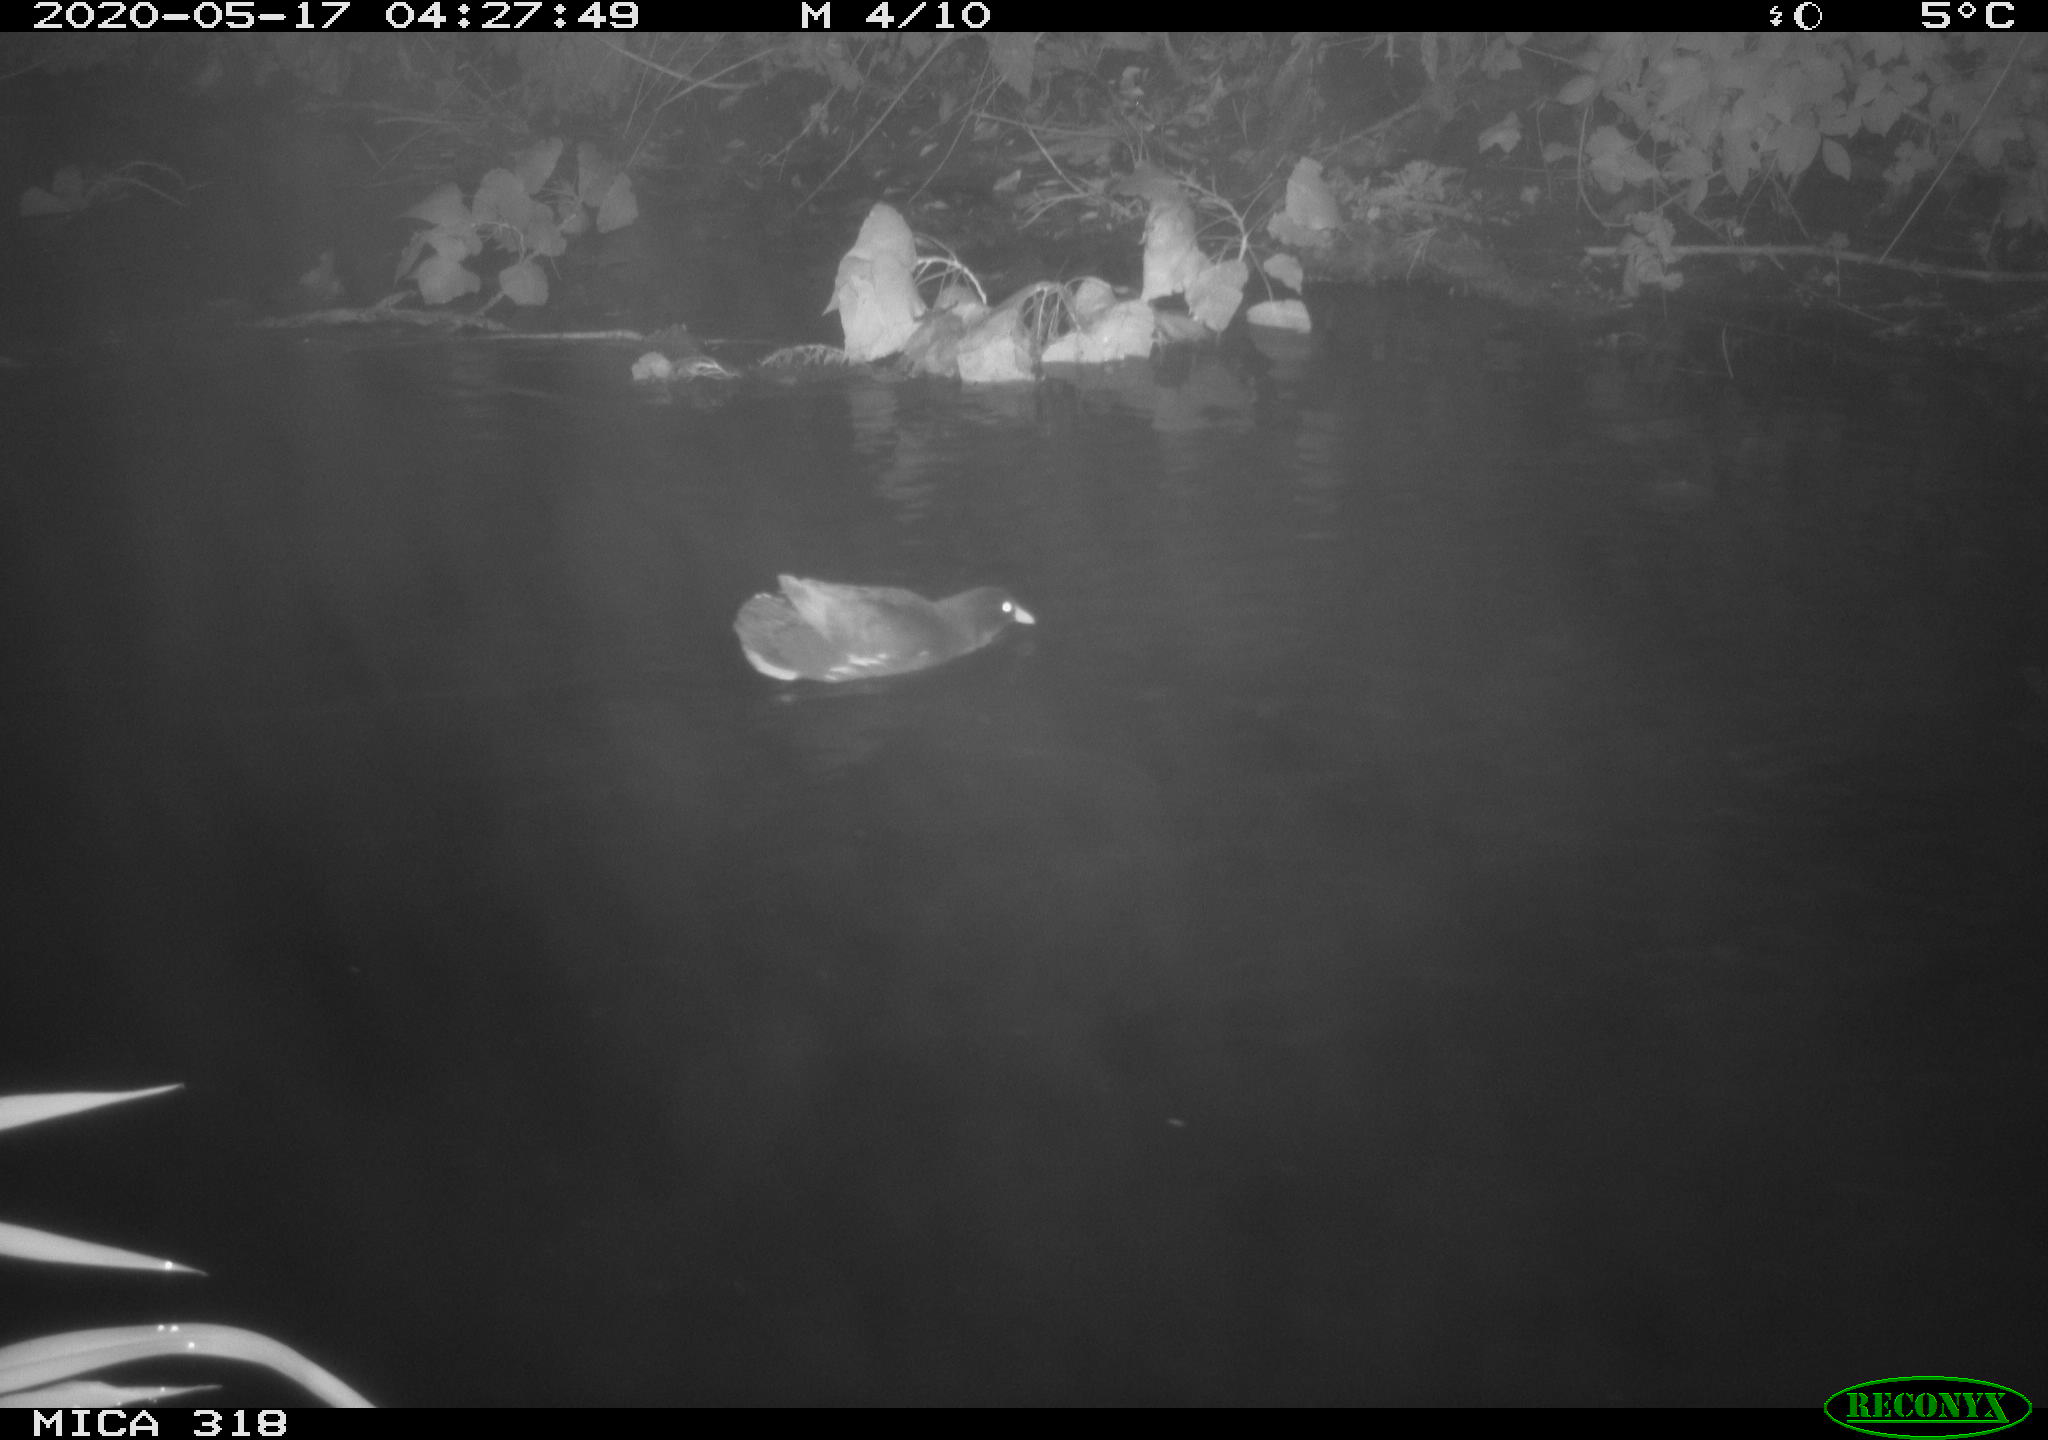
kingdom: Animalia
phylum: Chordata
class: Aves
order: Gruiformes
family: Rallidae
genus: Gallinula
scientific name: Gallinula chloropus
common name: Common moorhen
